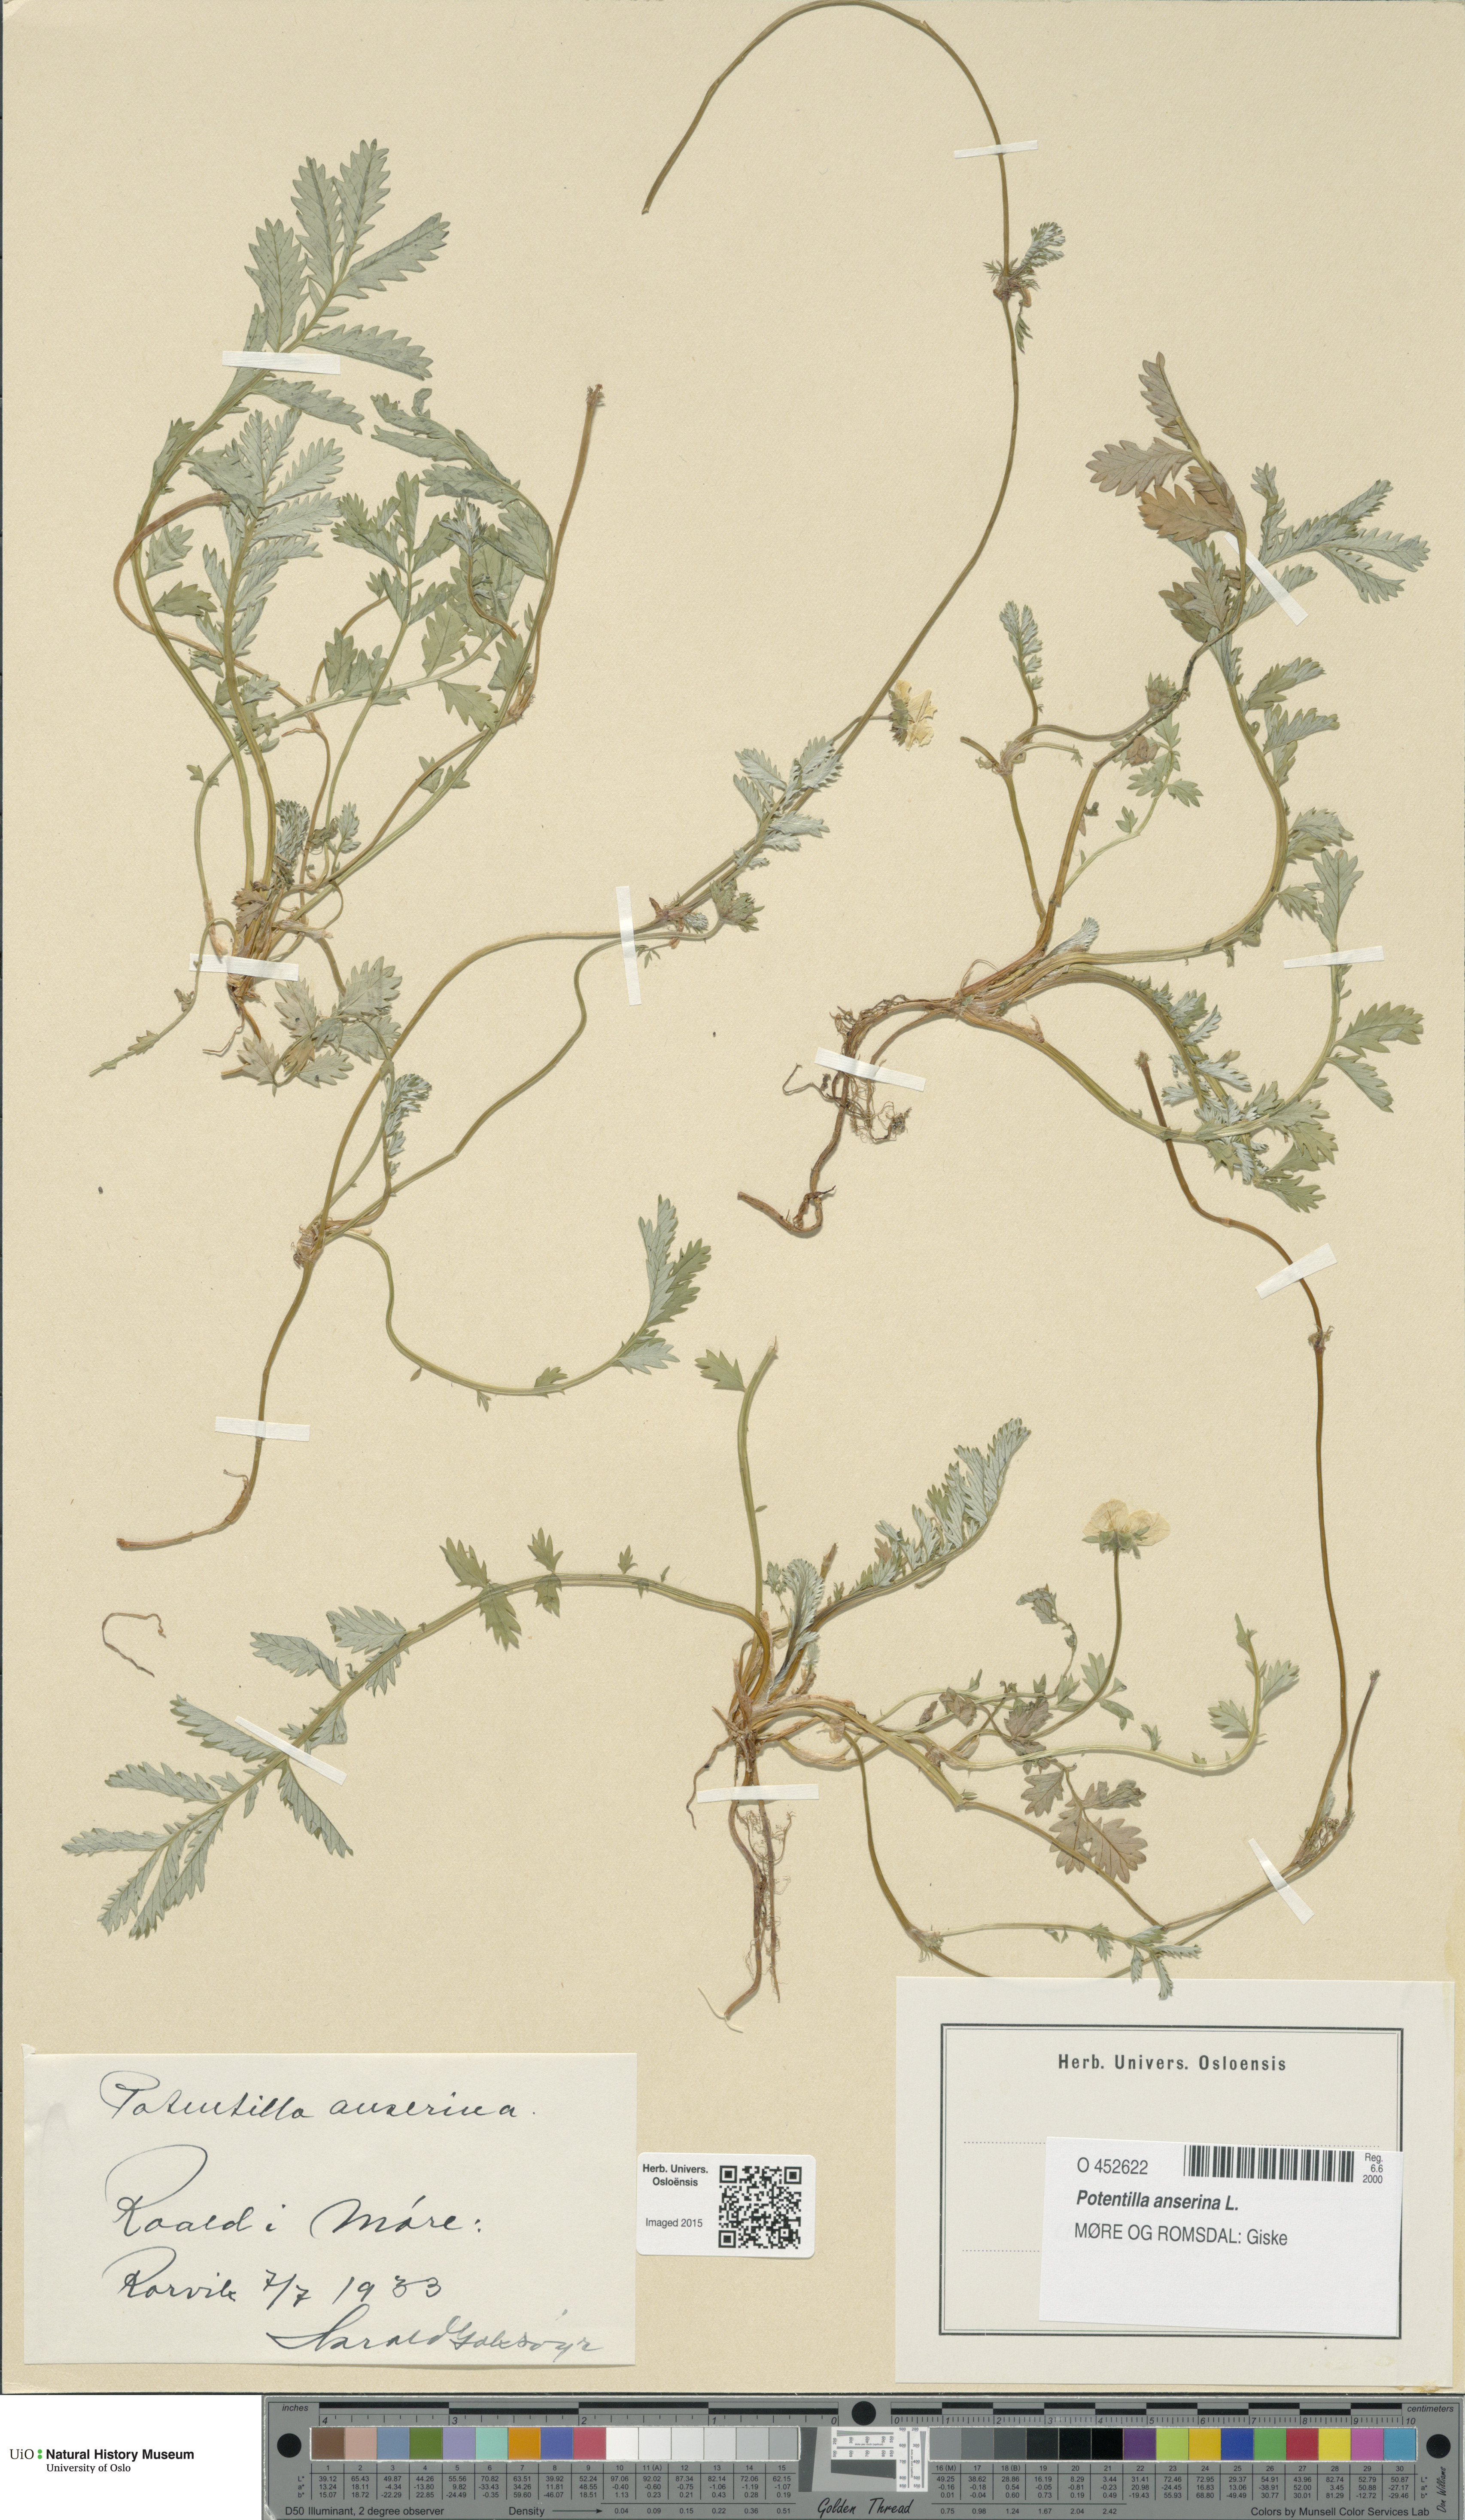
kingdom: Plantae
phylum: Tracheophyta
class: Magnoliopsida
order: Rosales
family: Rosaceae
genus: Argentina
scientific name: Argentina anserina
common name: Common silverweed
